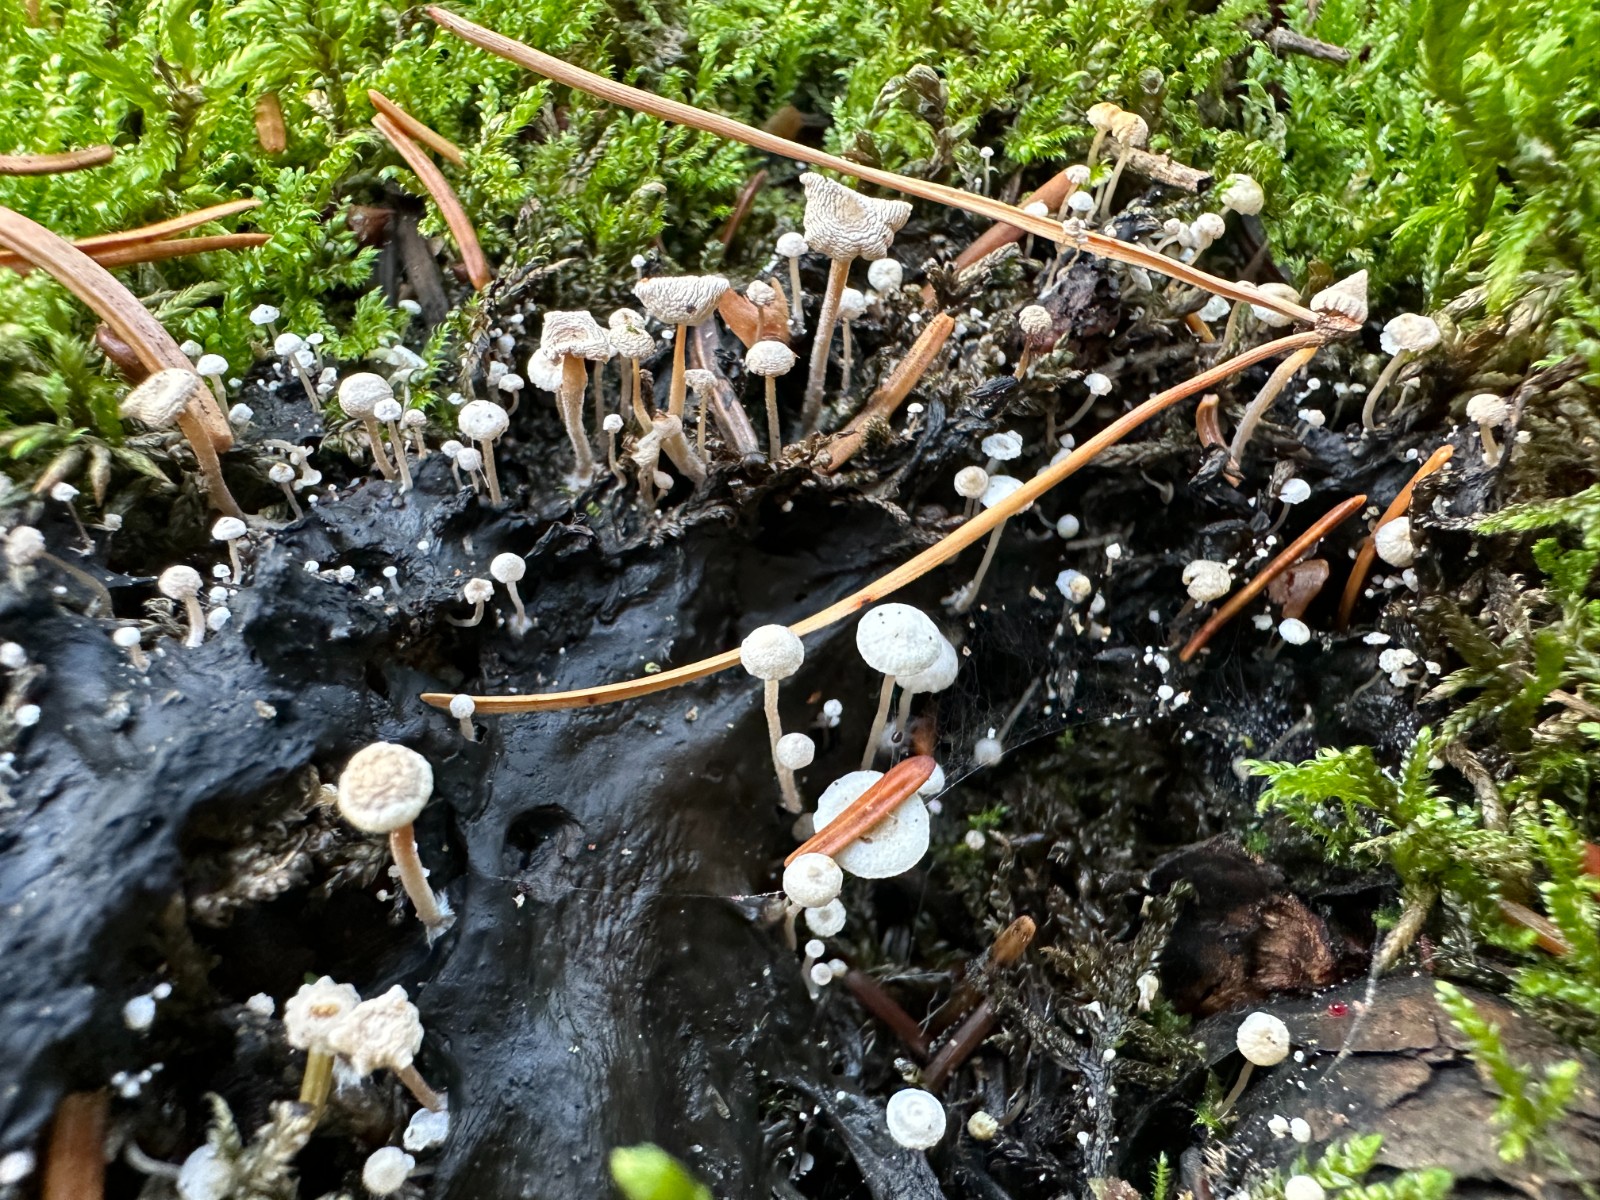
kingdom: Fungi
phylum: Basidiomycota
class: Agaricomycetes
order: Agaricales
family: Tricholomataceae
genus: Collybia
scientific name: Collybia cirrhata
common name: silke-lighat
